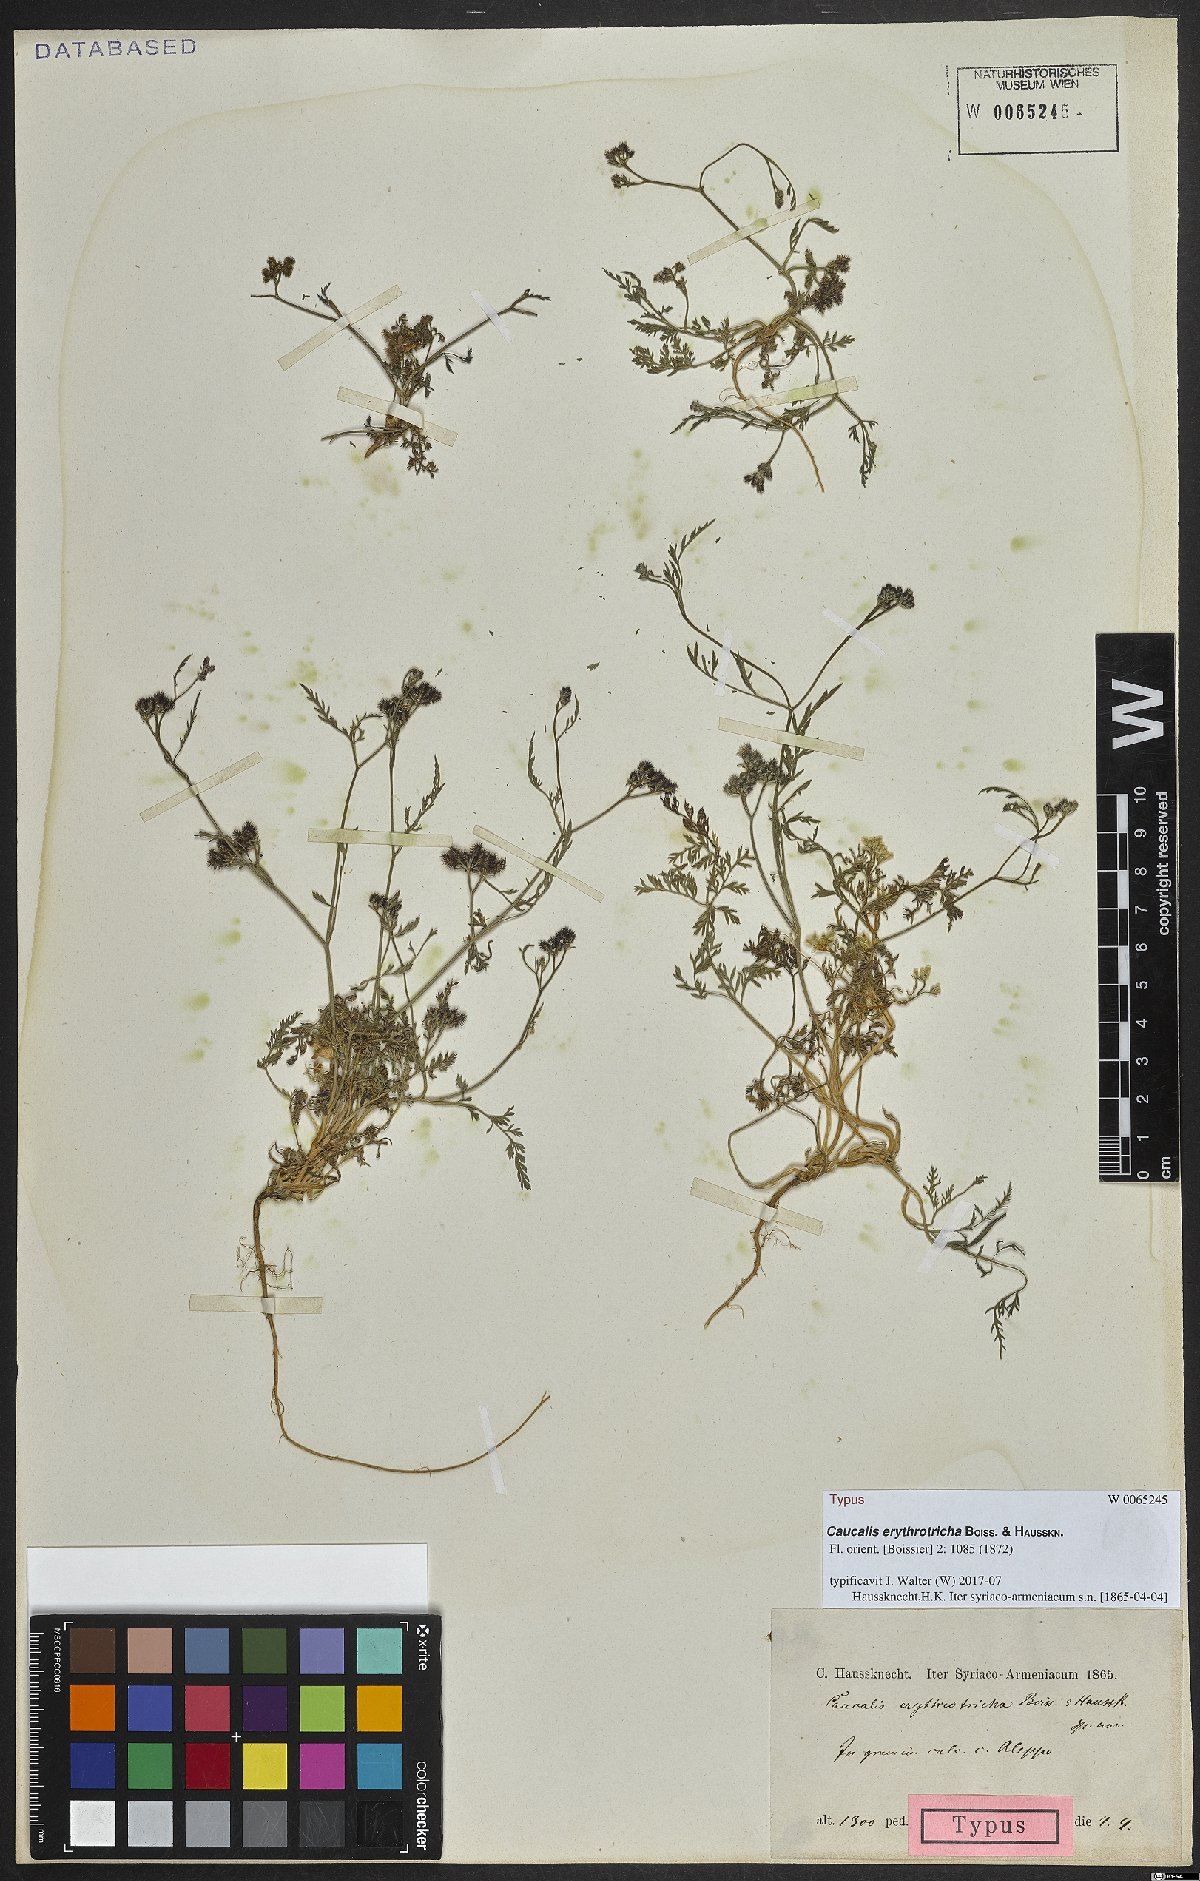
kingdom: Plantae
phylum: Tracheophyta
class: Magnoliopsida
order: Apiales
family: Apiaceae
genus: Torilis
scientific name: Torilis leptophylla
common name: Bristlefruit hedgeparsley
